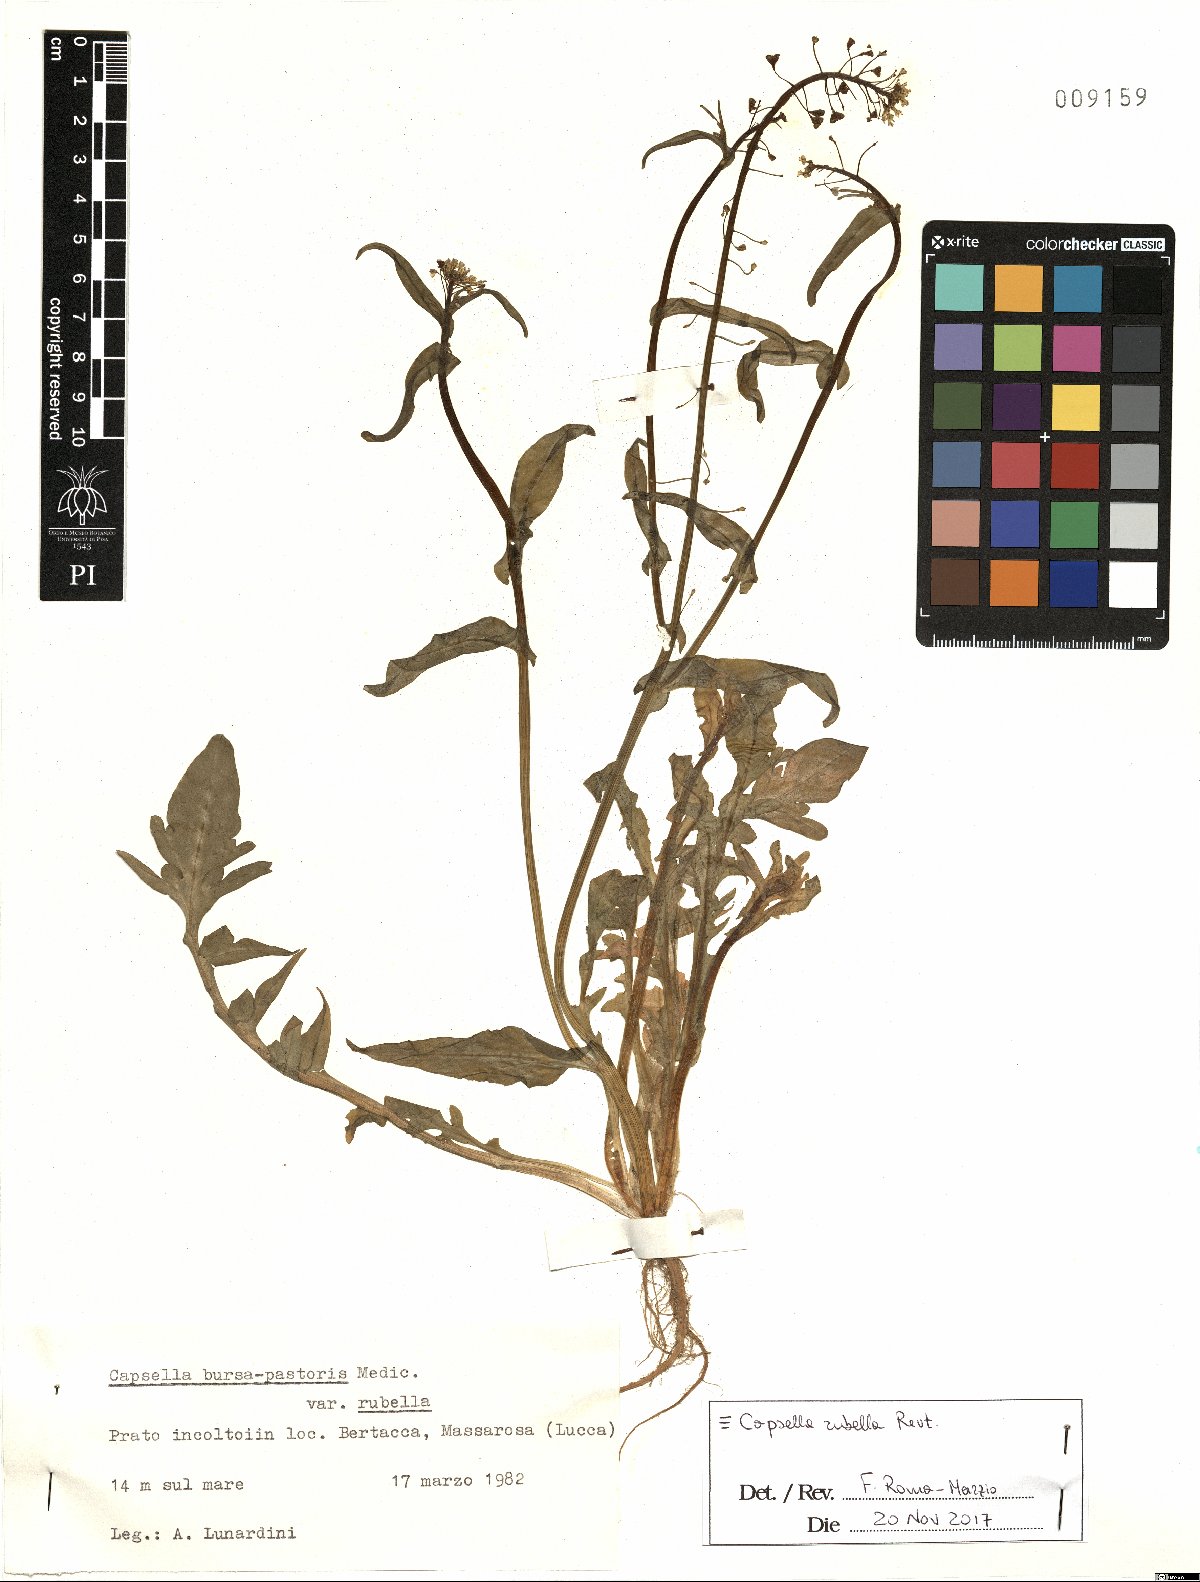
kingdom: Plantae
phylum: Tracheophyta
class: Magnoliopsida
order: Brassicales
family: Brassicaceae
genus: Capsella
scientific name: Capsella rubella
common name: Pink shepherd's-purse
